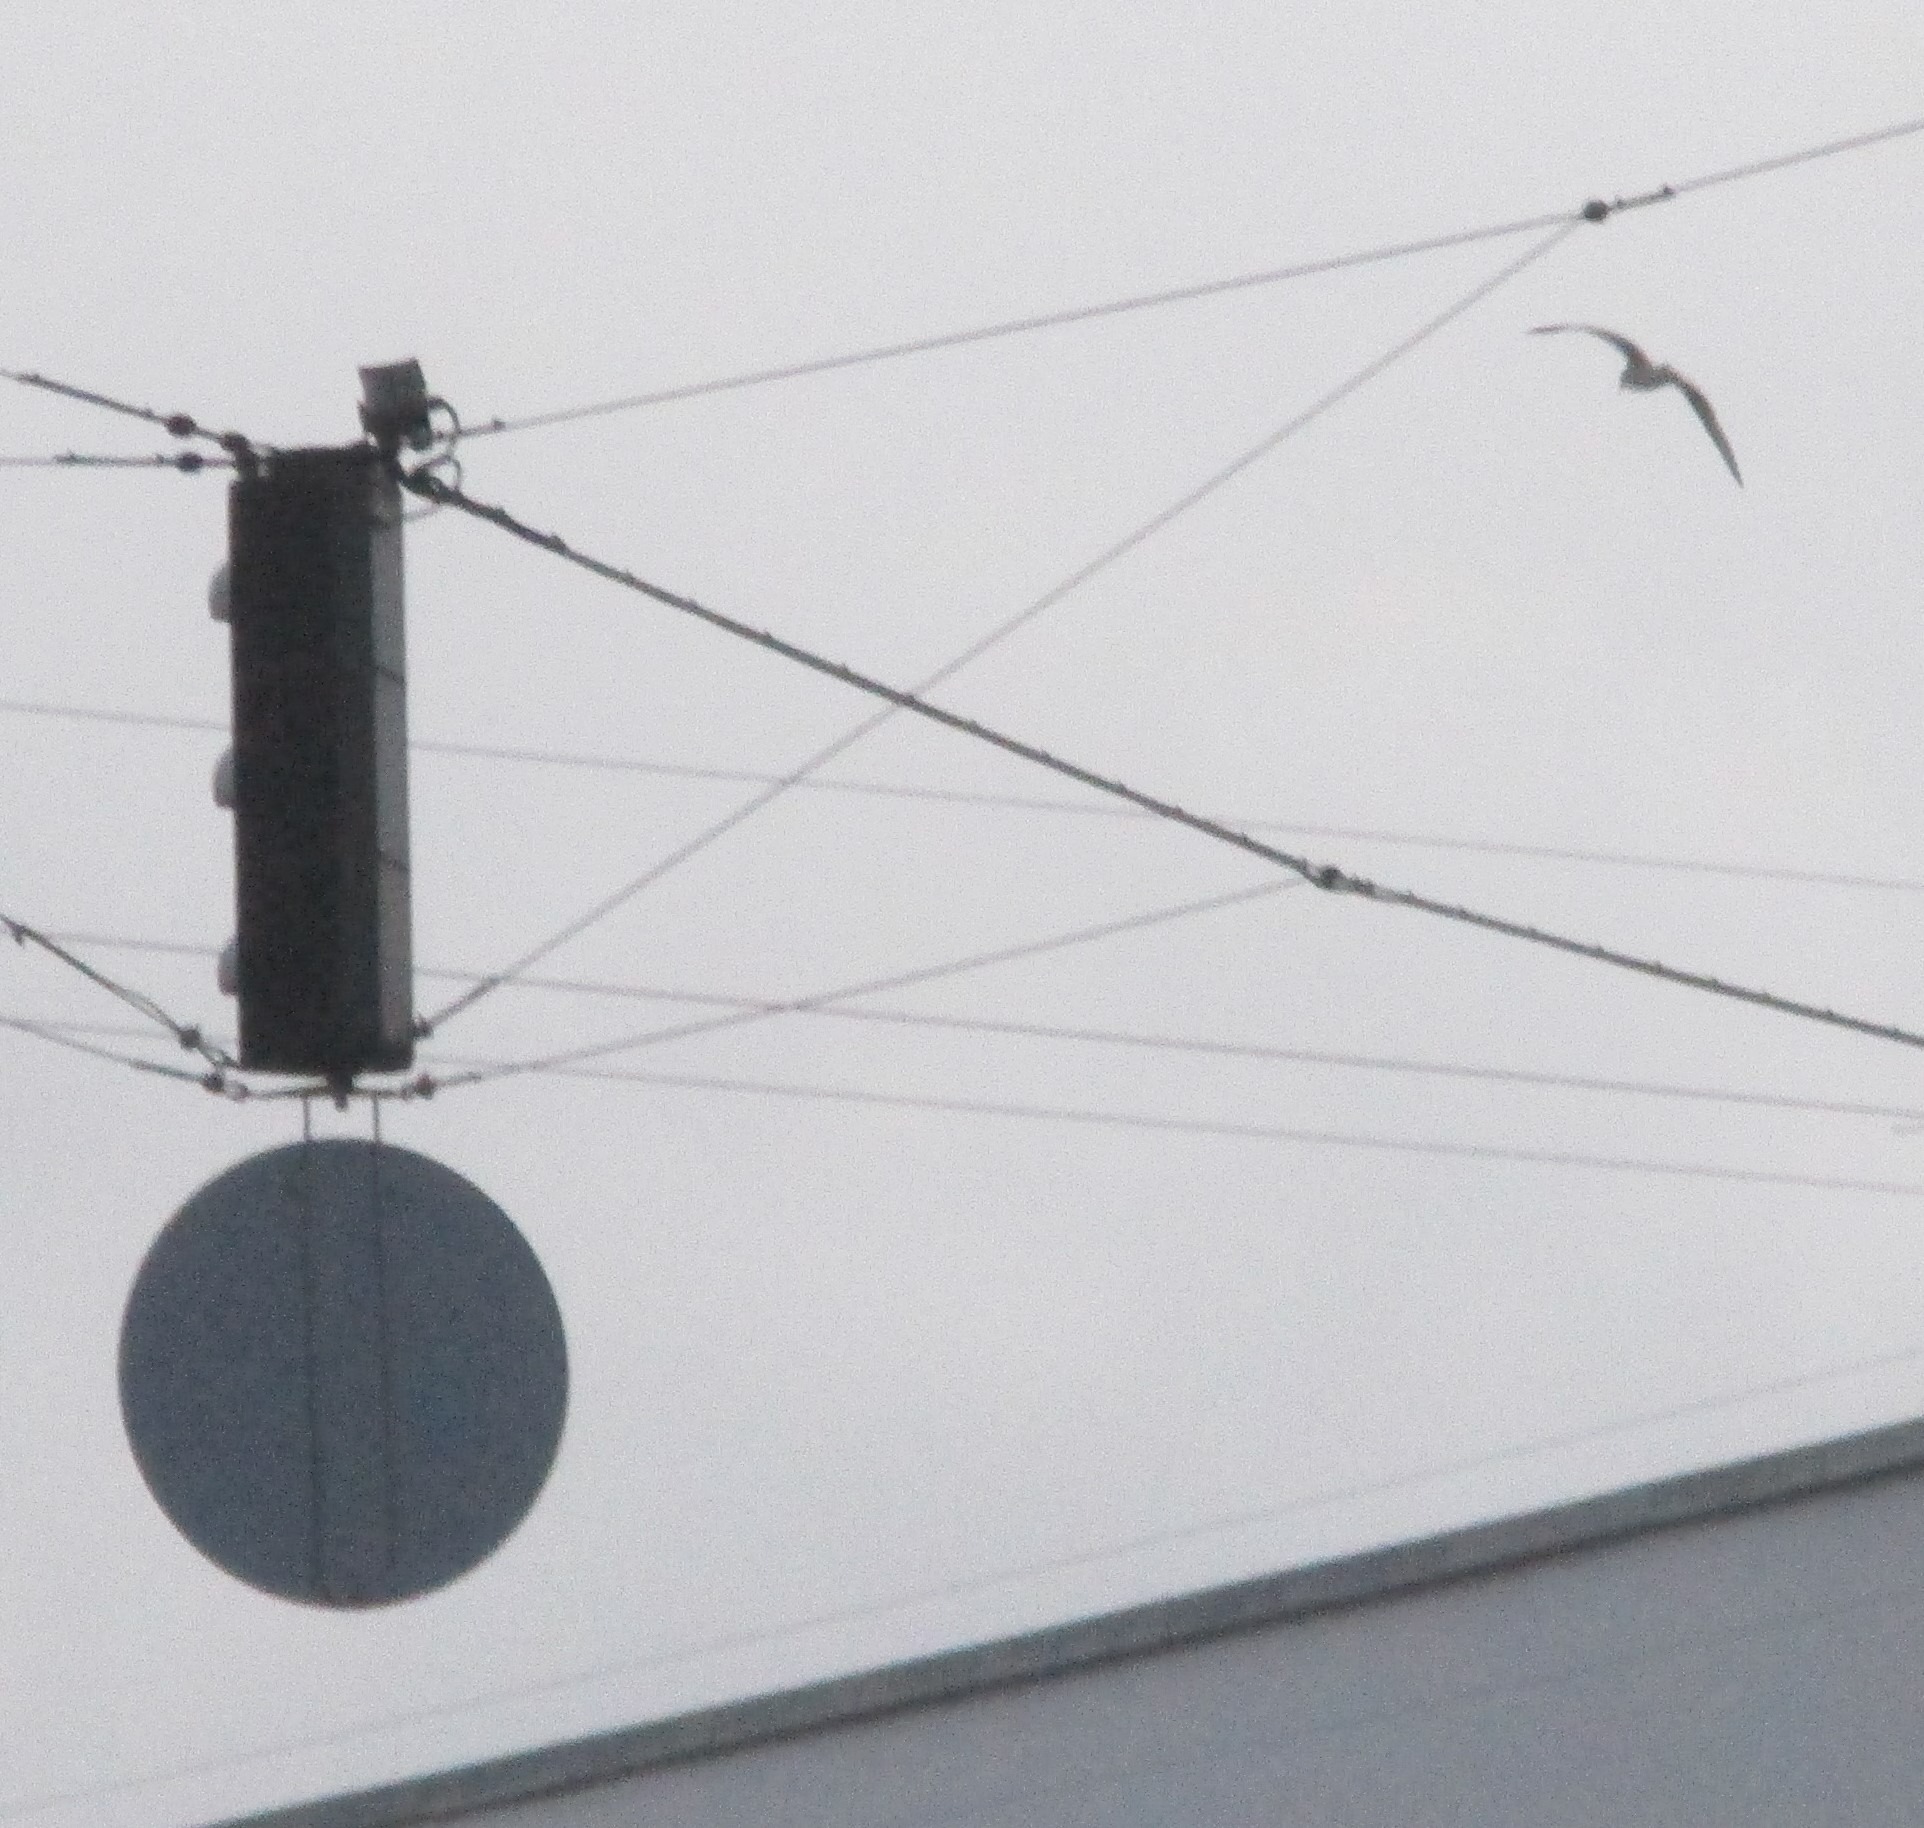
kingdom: Animalia
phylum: Chordata
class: Aves
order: Charadriiformes
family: Laridae
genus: Larus
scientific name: Larus argentatus
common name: Sølvmåge
